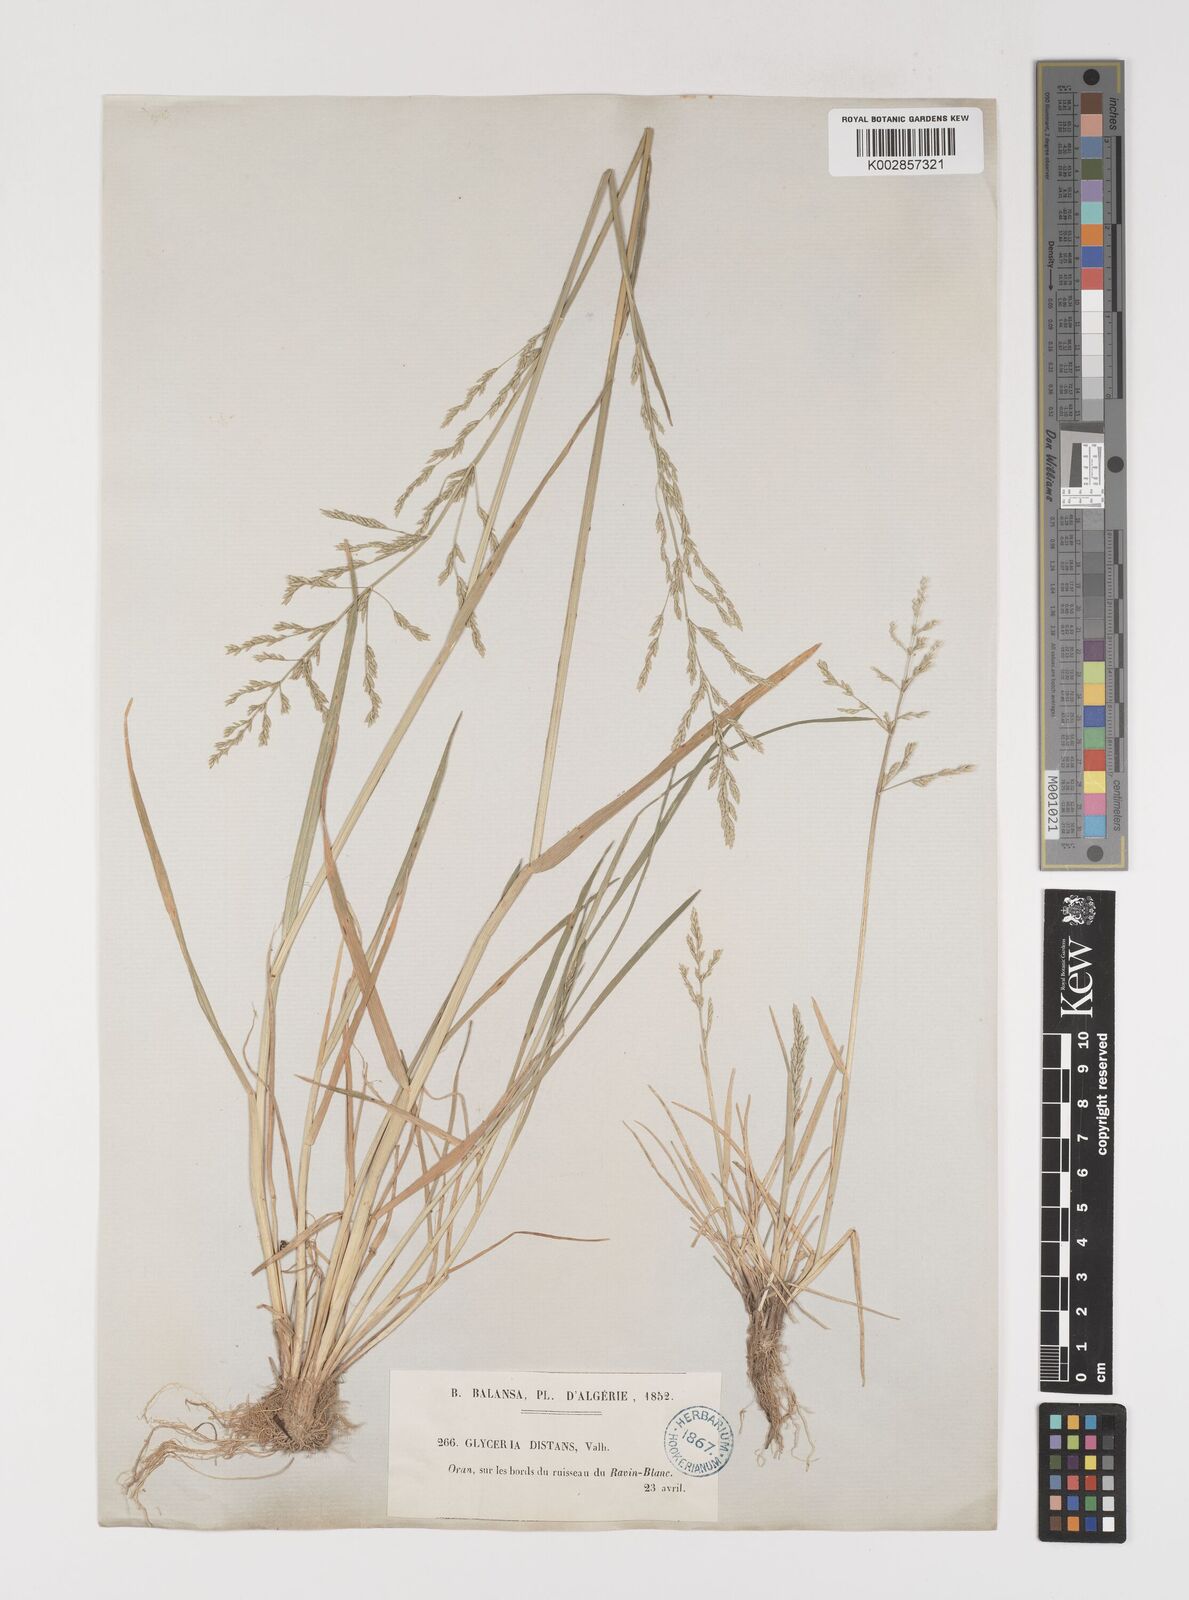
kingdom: Plantae
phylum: Tracheophyta
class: Liliopsida
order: Poales
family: Poaceae
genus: Puccinellia
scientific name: Puccinellia distans
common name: Weeping alkaligrass
